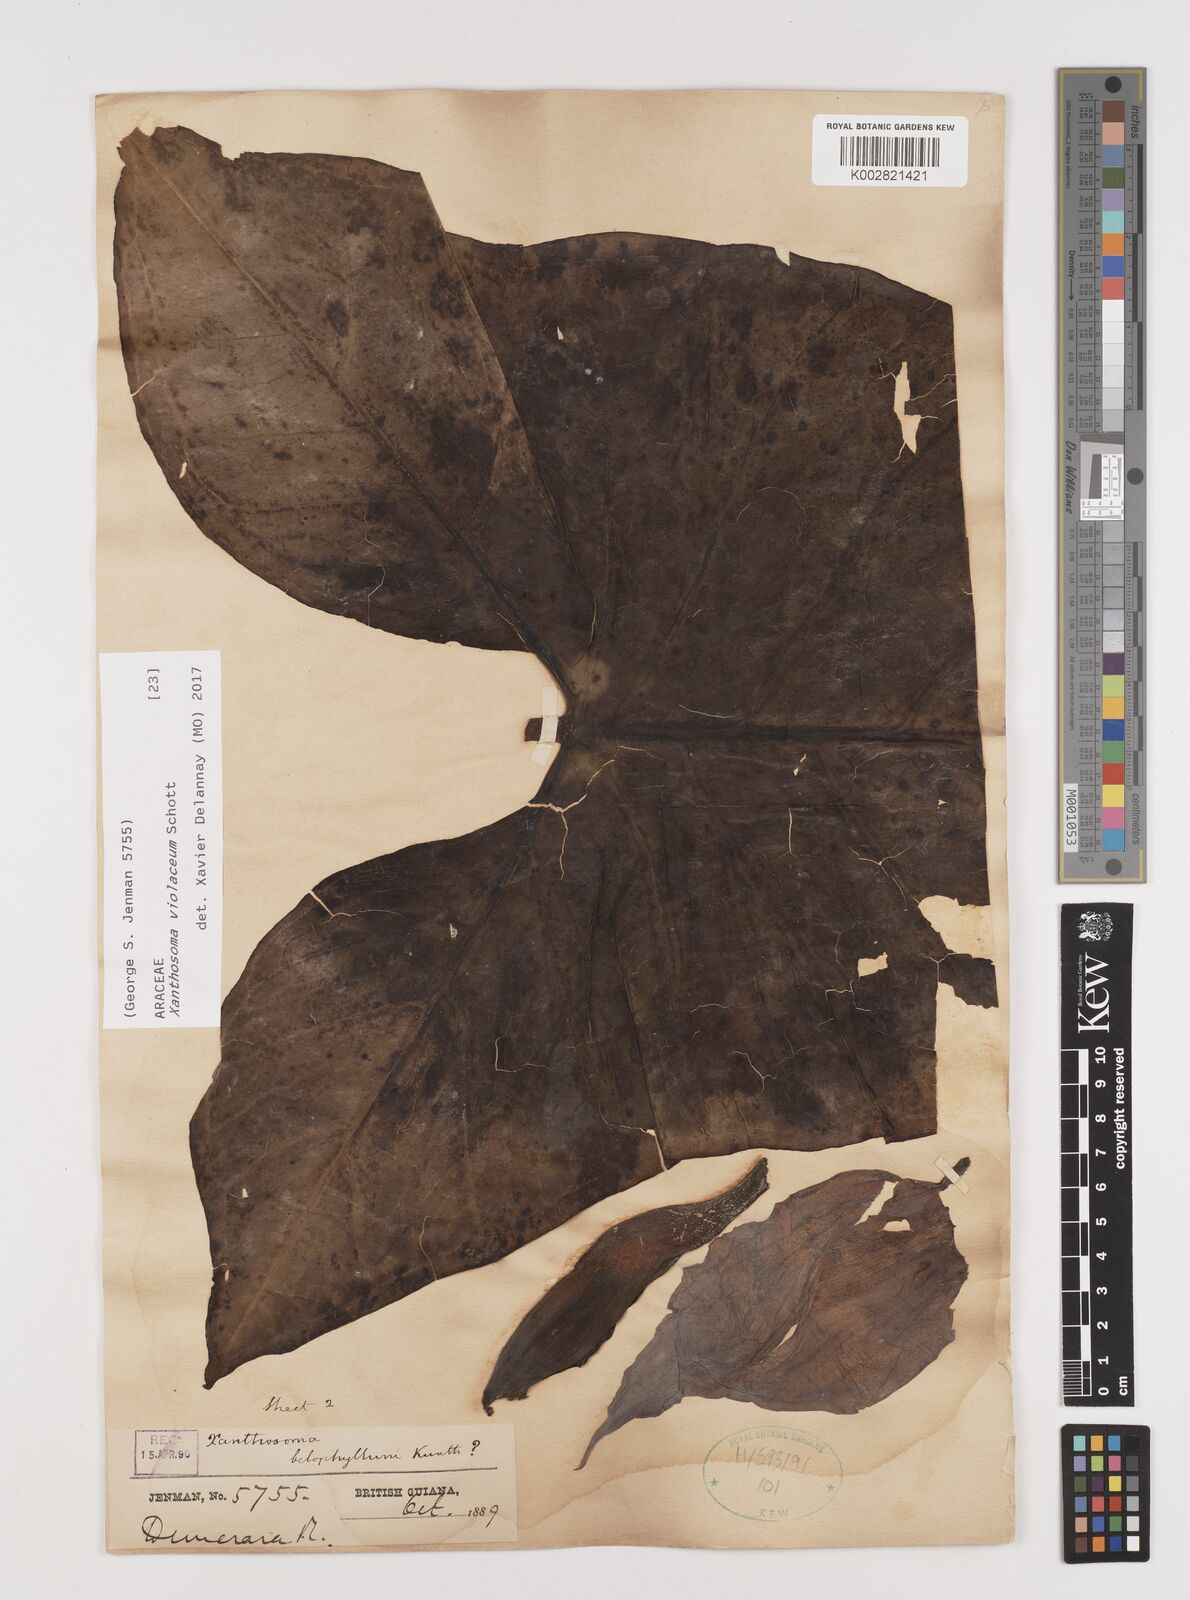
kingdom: Plantae
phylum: Tracheophyta
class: Liliopsida
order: Alismatales
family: Araceae
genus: Xanthosoma
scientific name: Xanthosoma sagittifolium
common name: Arrowleaf elephant's ear
